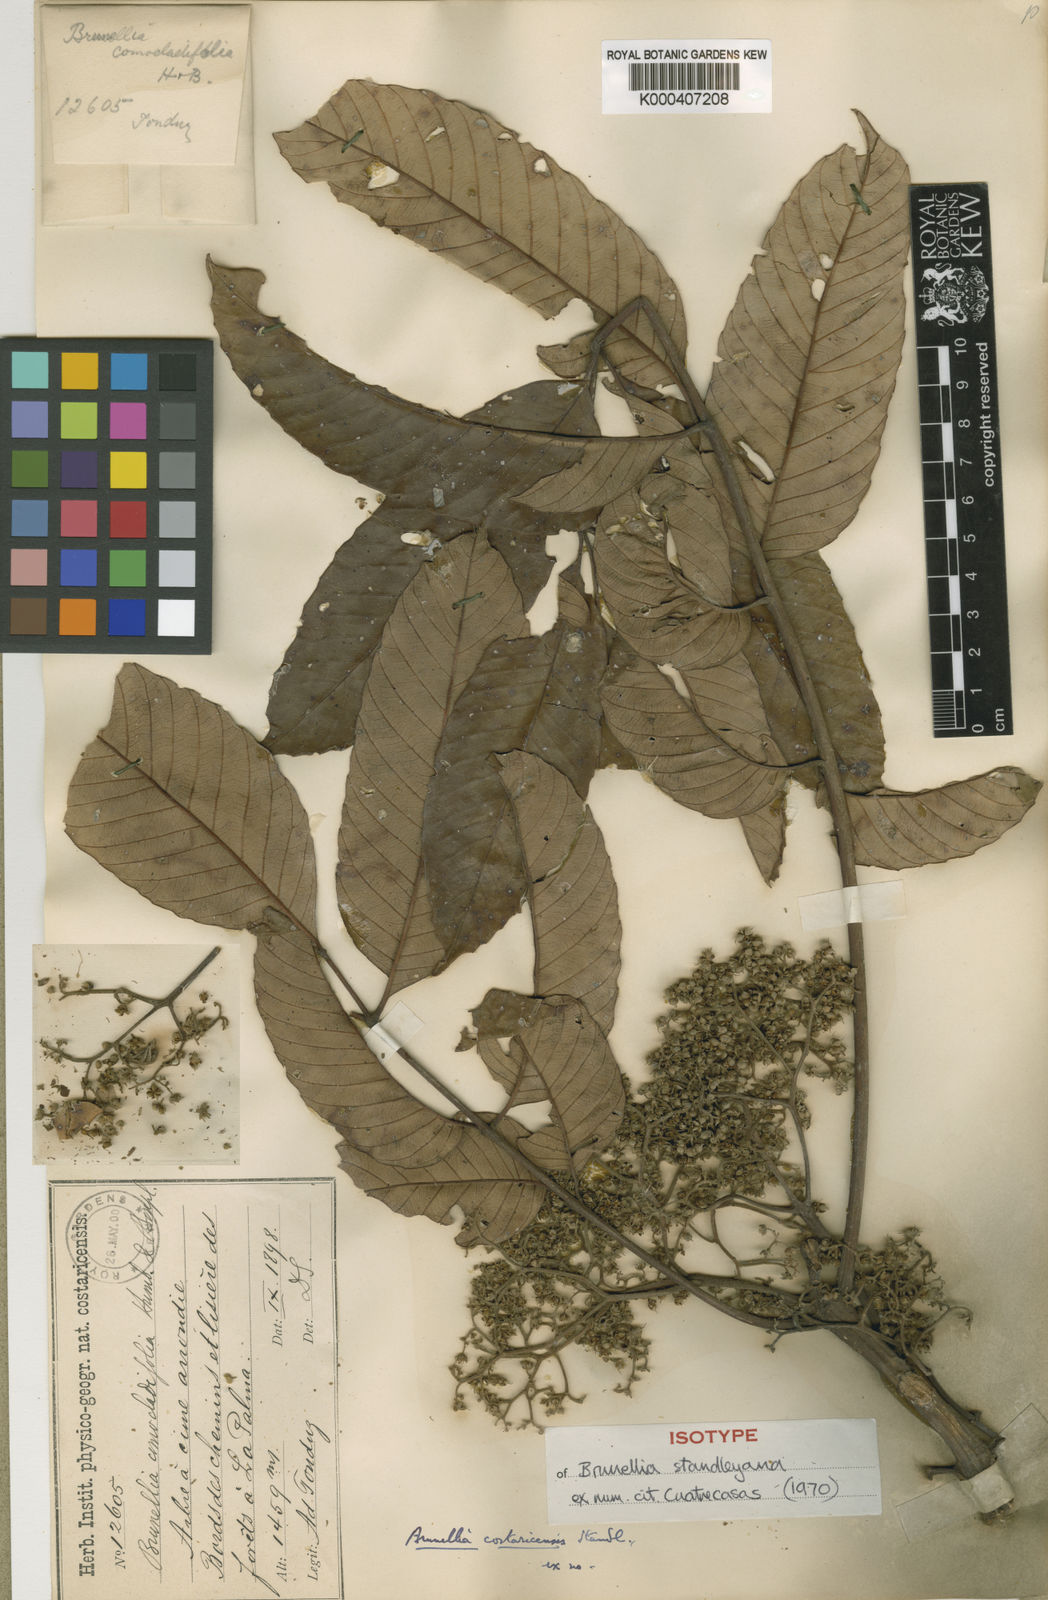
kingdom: Plantae
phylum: Tracheophyta
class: Magnoliopsida
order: Oxalidales
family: Brunelliaceae
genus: Brunellia
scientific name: Brunellia standleyana
